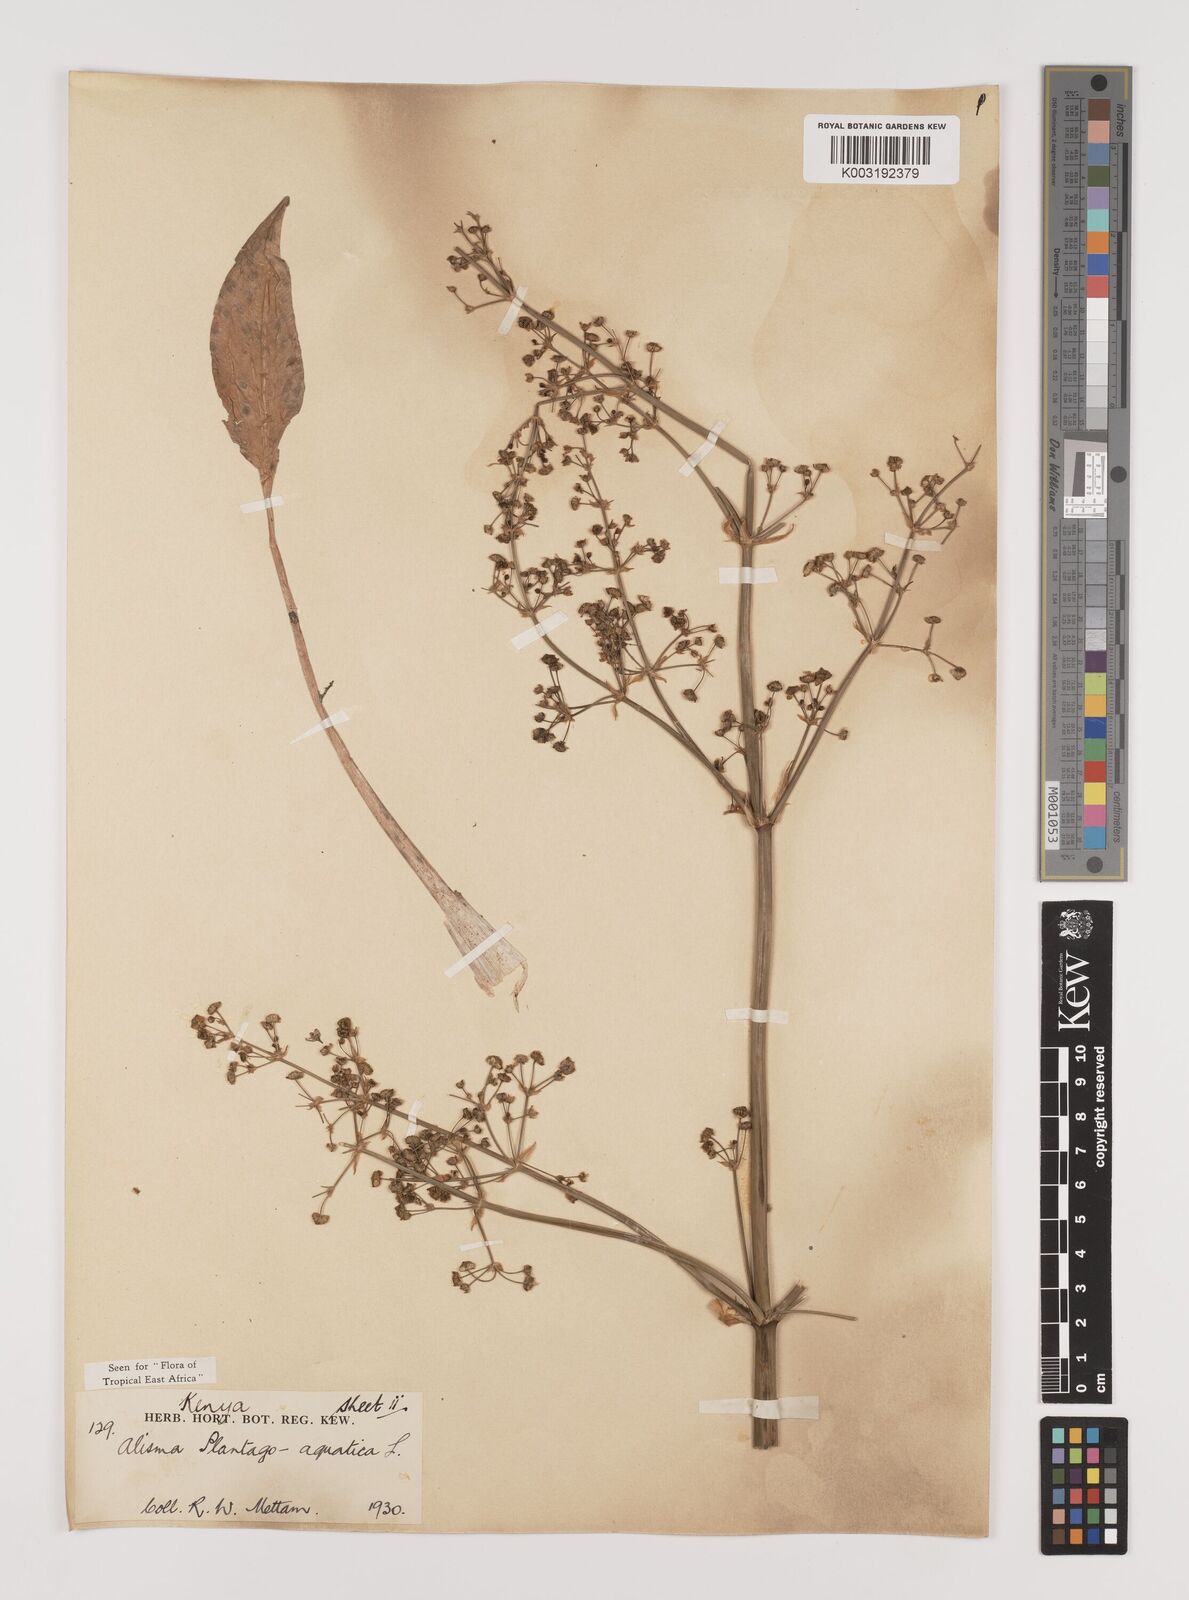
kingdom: Plantae
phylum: Tracheophyta
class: Liliopsida
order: Alismatales
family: Alismataceae
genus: Alisma
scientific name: Alisma plantago-aquatica
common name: Water-plantain
